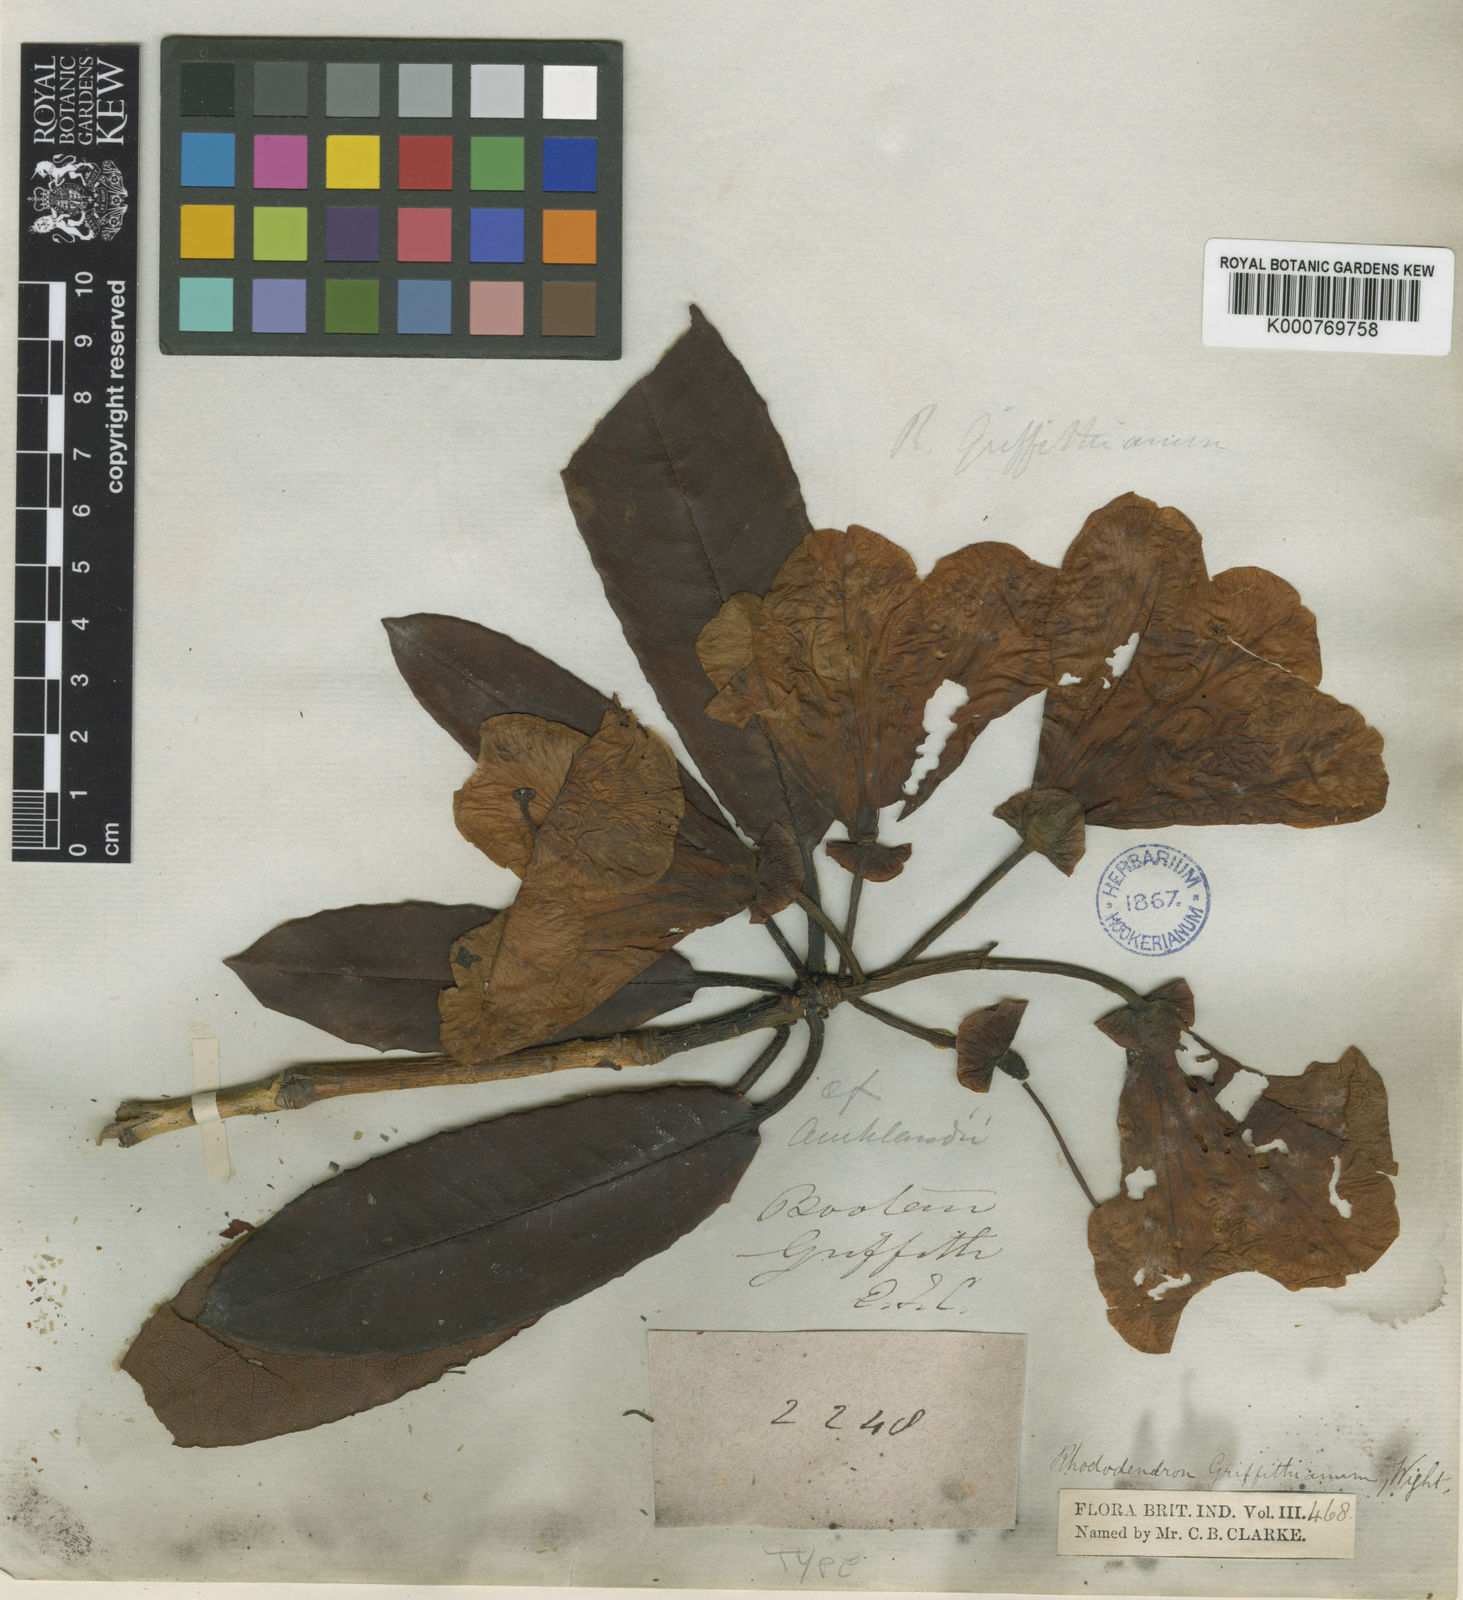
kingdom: Plantae
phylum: Tracheophyta
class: Magnoliopsida
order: Ericales
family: Ericaceae
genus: Rhododendron
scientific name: Rhododendron griffithianum
